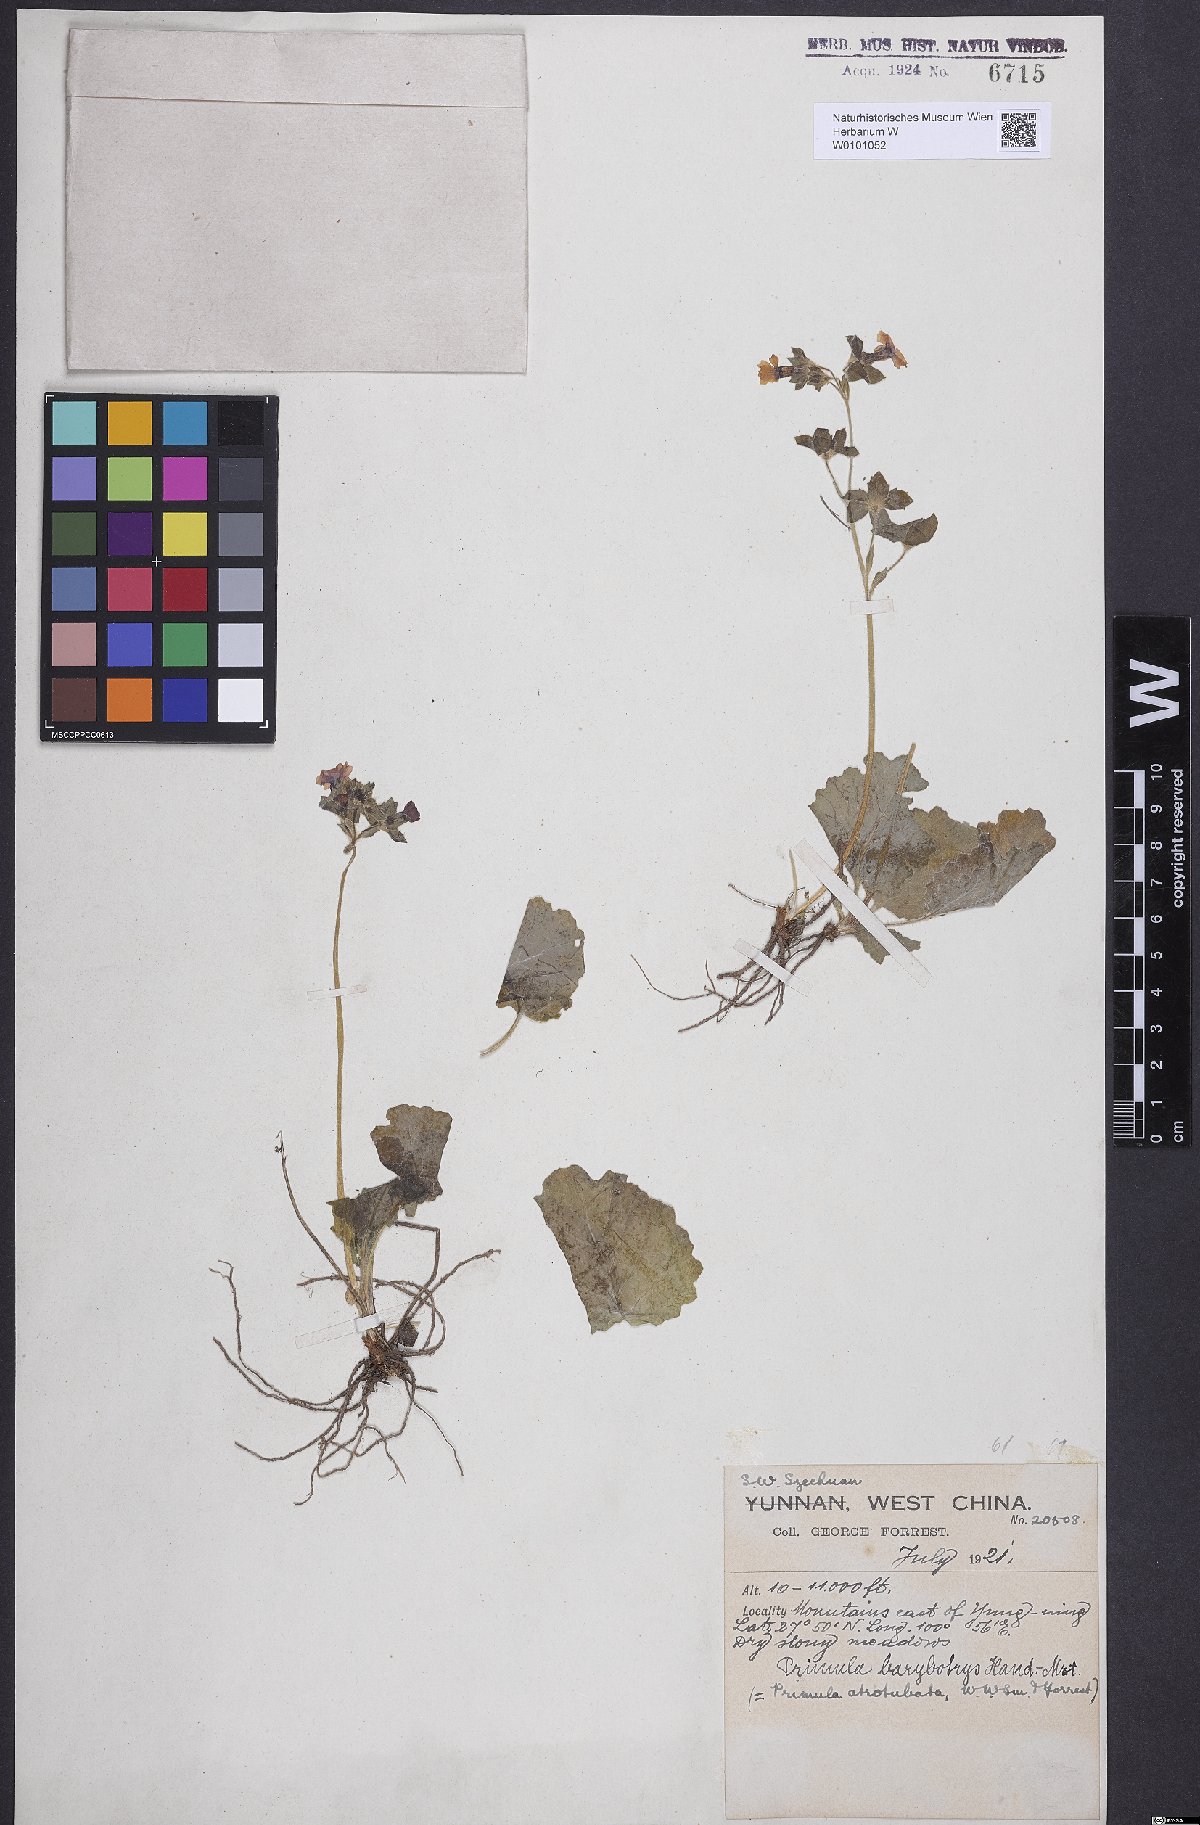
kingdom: Plantae
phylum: Tracheophyta
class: Magnoliopsida
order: Ericales
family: Primulaceae
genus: Primula
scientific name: Primula malvacea
